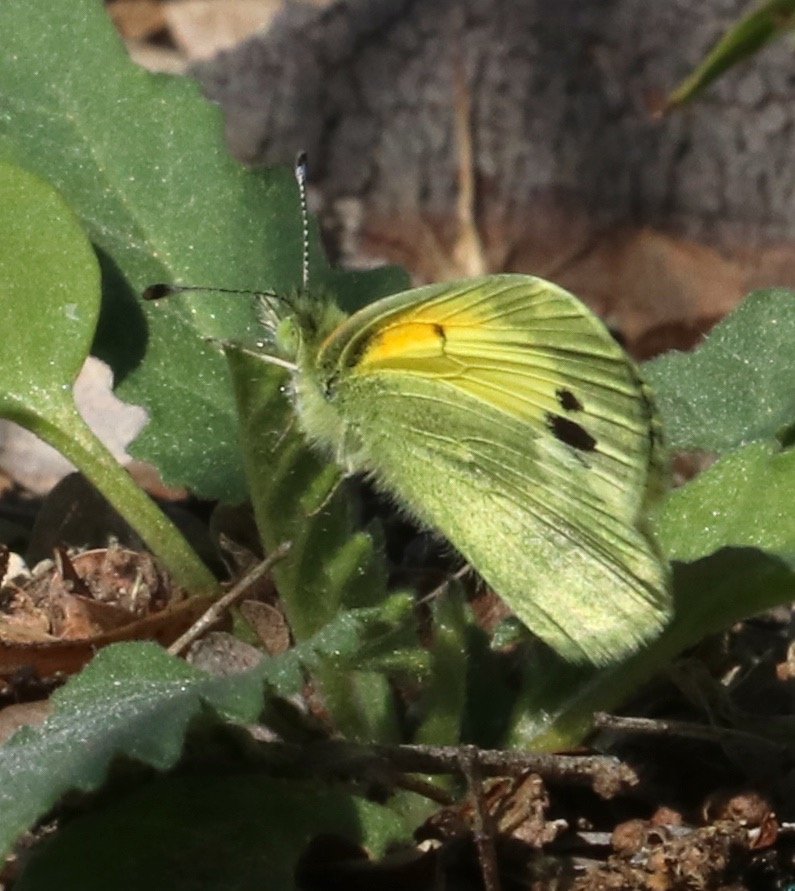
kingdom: Animalia
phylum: Arthropoda
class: Insecta
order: Lepidoptera
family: Pieridae
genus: Nathalis
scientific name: Nathalis iole
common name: Dainty Sulphur
